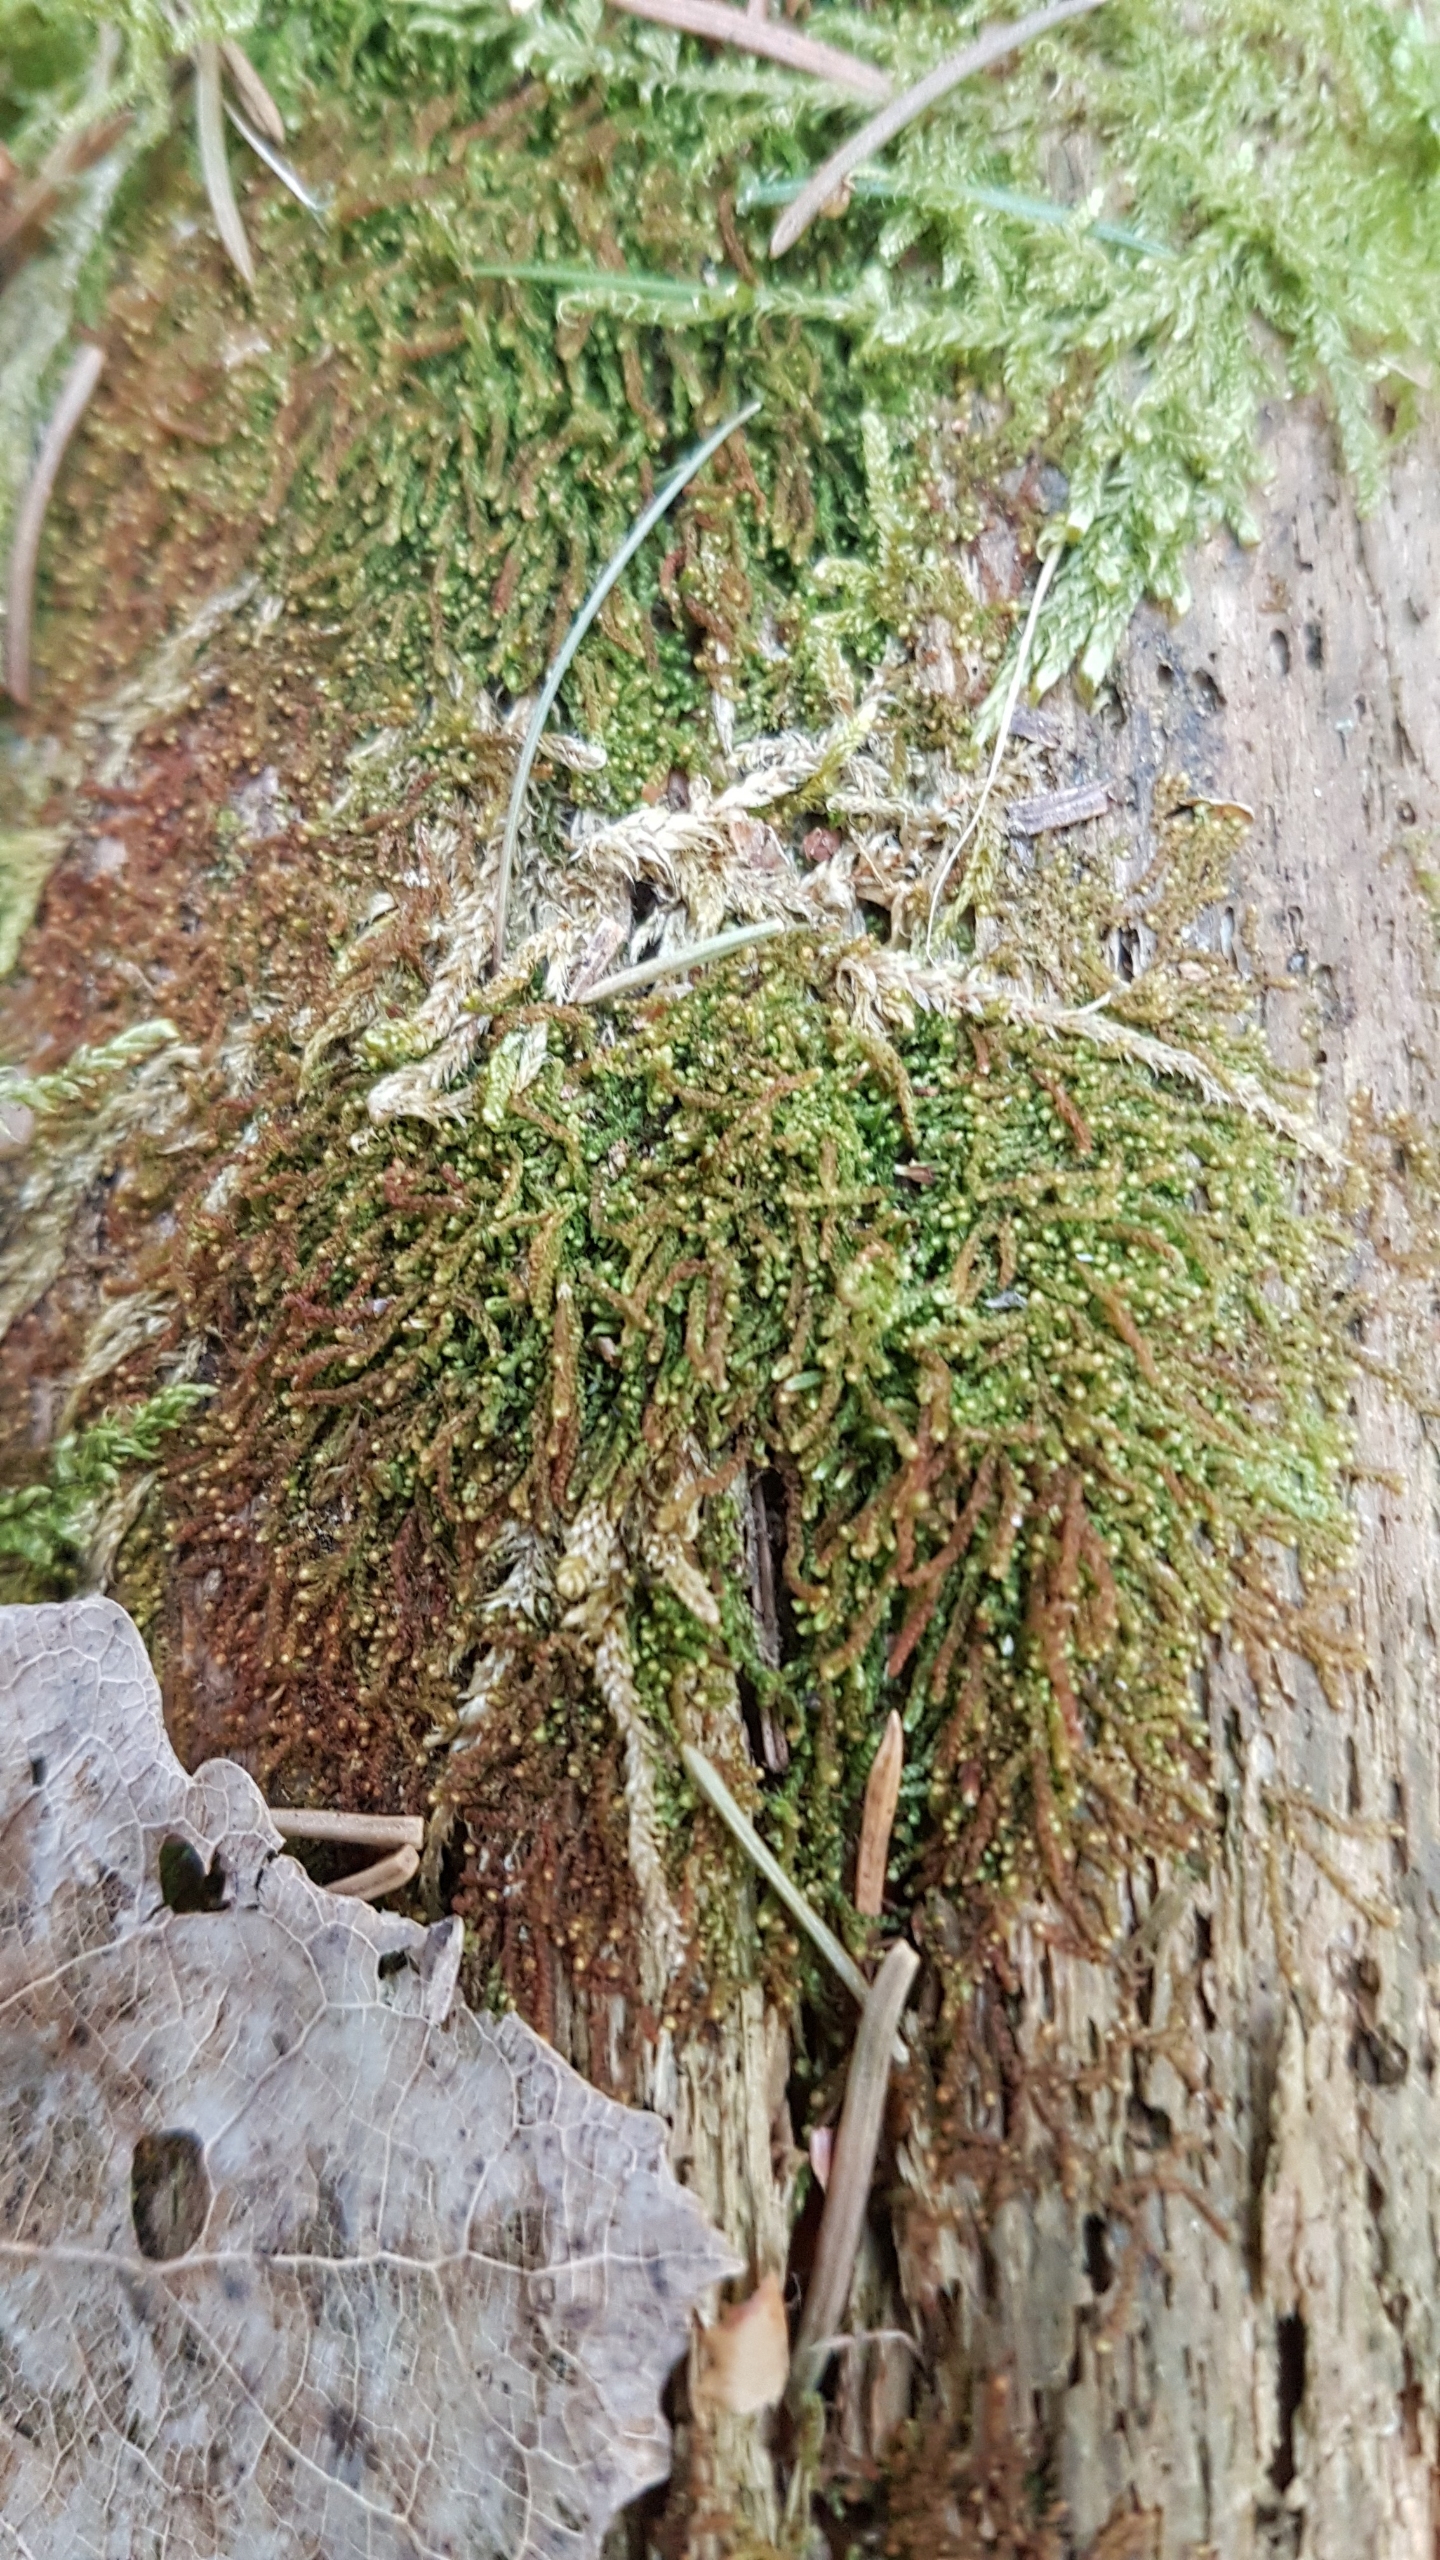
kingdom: Plantae
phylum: Marchantiophyta
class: Jungermanniopsida
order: Jungermanniales
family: Cephaloziaceae
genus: Nowellia
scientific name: Nowellia curvifolia
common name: Krumbladet stødmos
